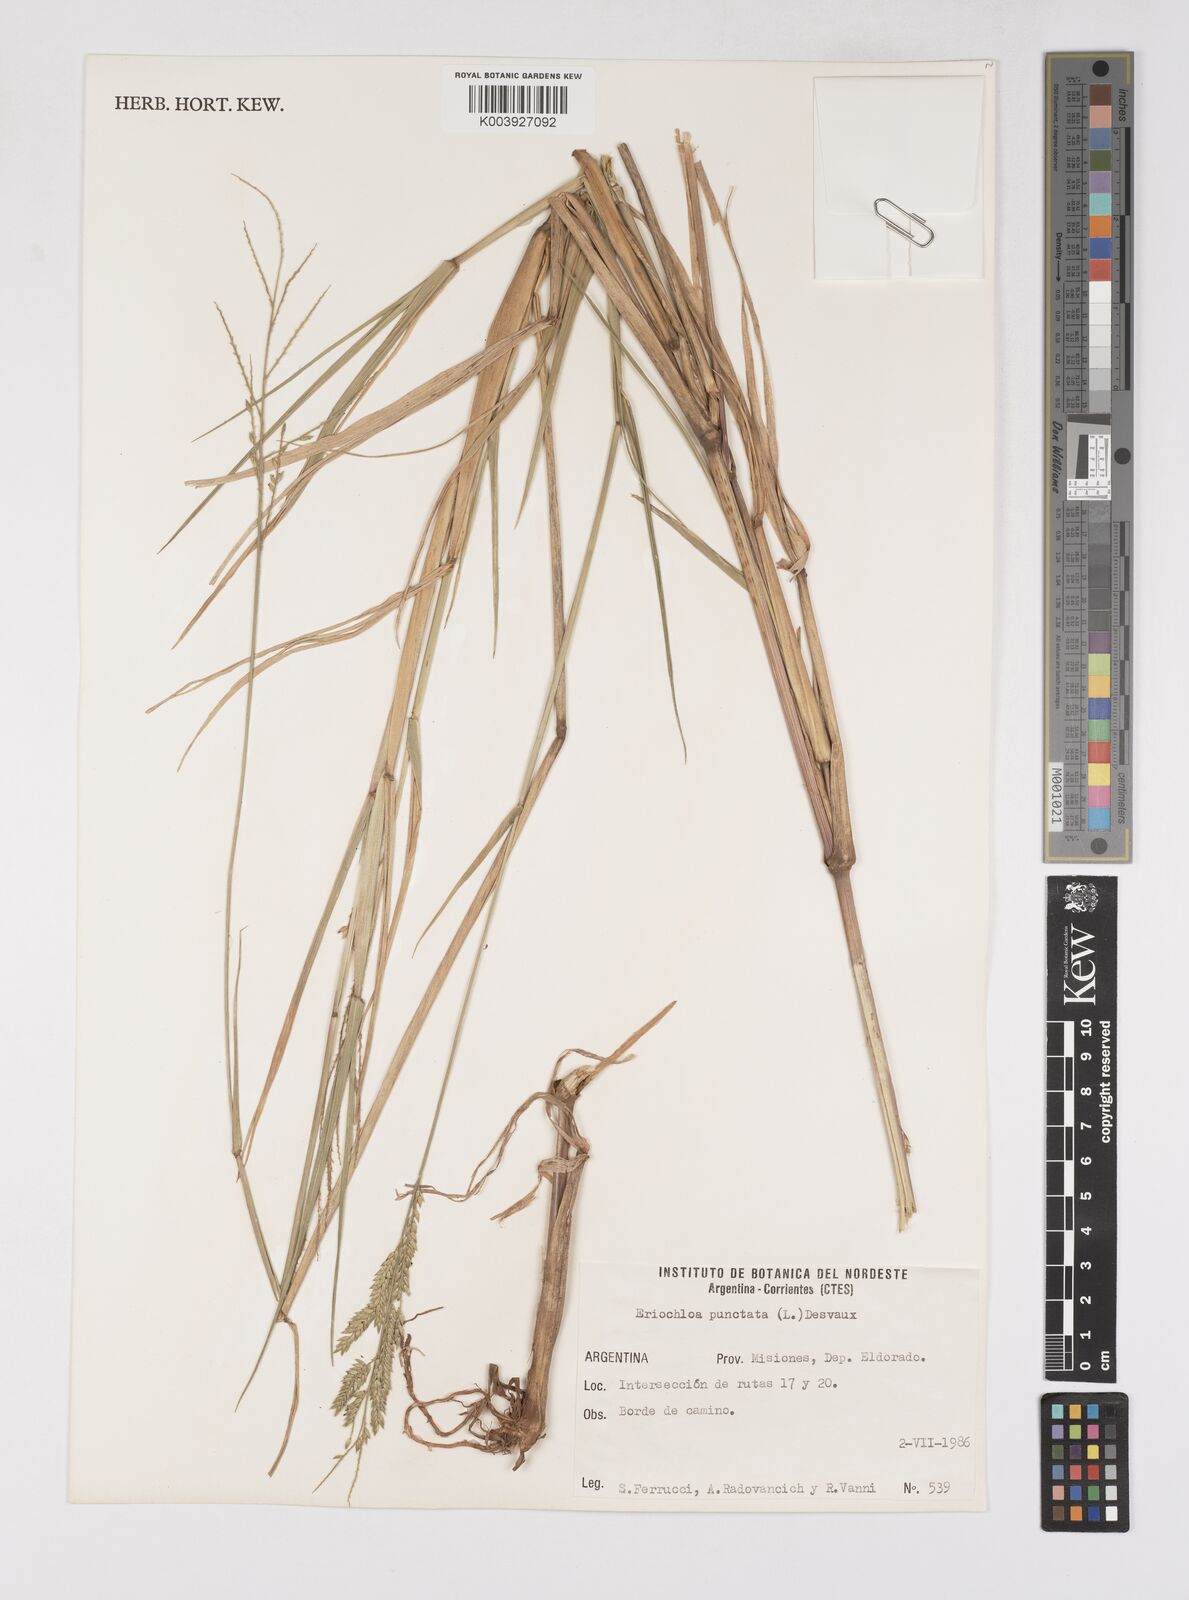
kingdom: Plantae
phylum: Tracheophyta
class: Liliopsida
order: Poales
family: Poaceae
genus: Eriochloa
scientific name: Eriochloa punctata
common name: Louisiana cupgrass
